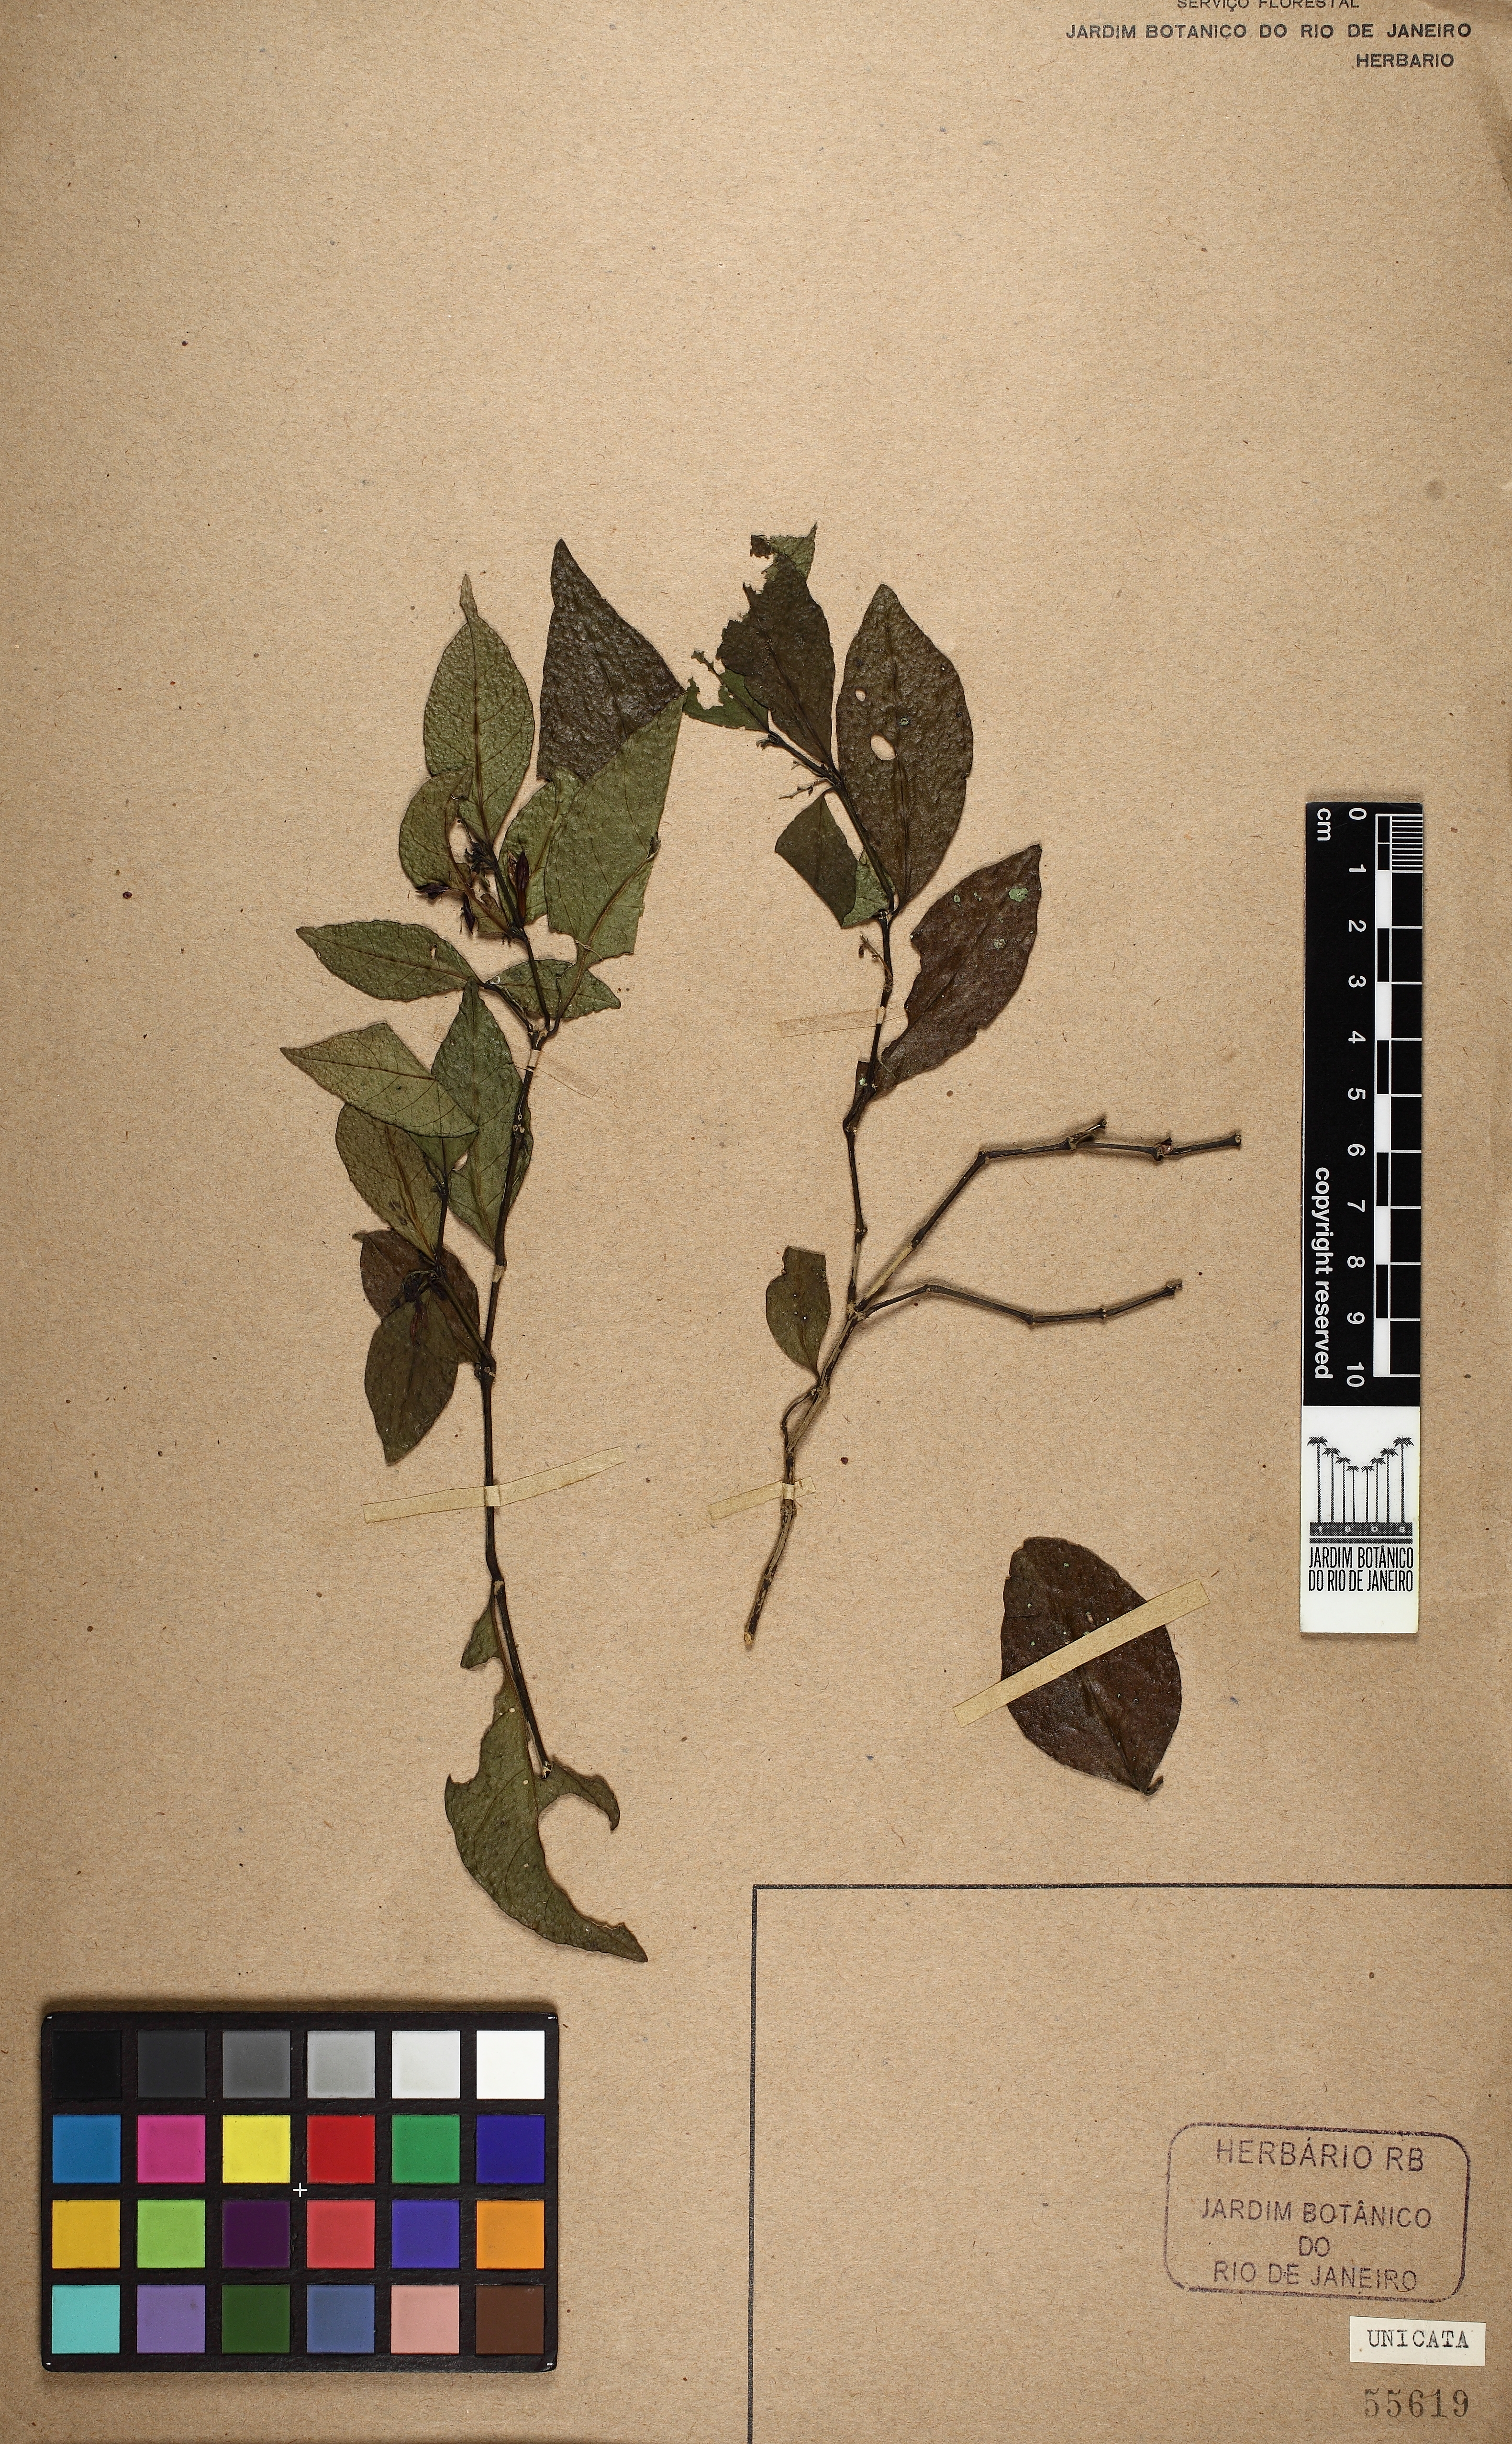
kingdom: Plantae
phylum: Tracheophyta
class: Magnoliopsida
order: Lamiales
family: Acanthaceae
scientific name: Acanthaceae
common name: Acanthaceae
